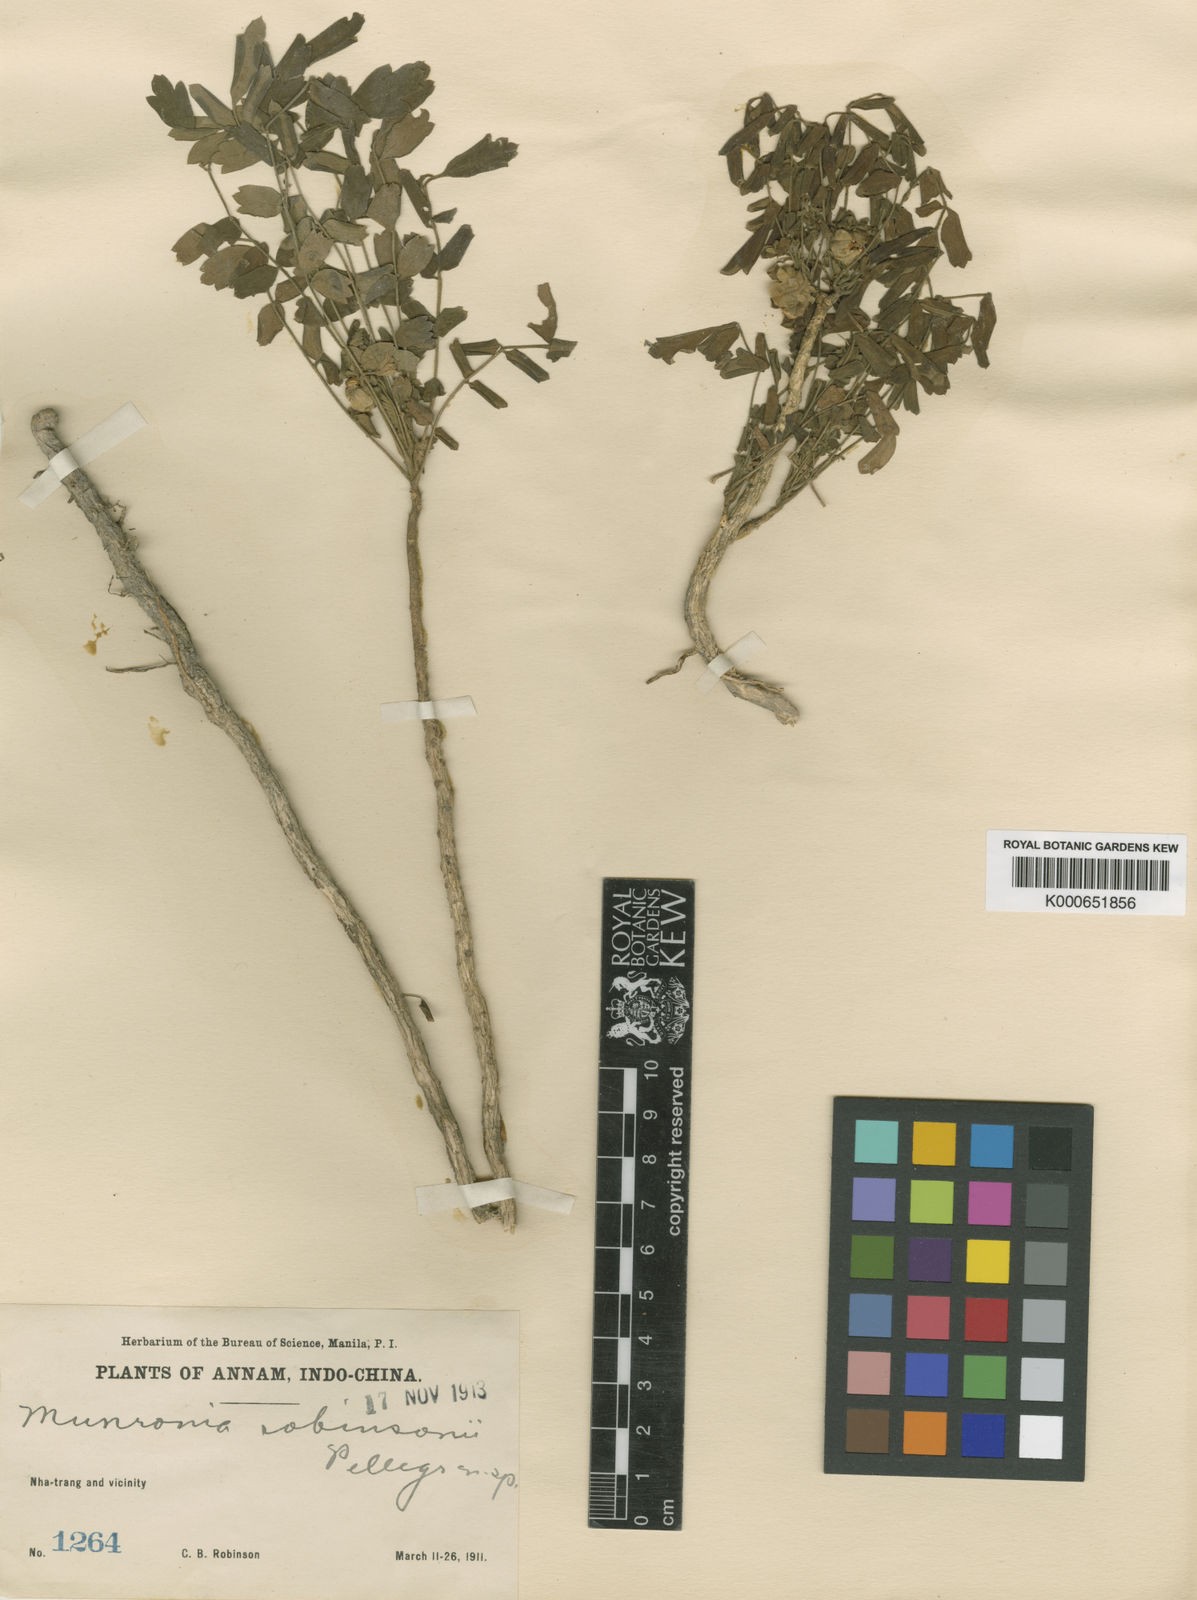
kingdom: Plantae
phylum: Tracheophyta
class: Magnoliopsida
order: Sapindales
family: Meliaceae
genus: Munronia
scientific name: Munronia pinnata
